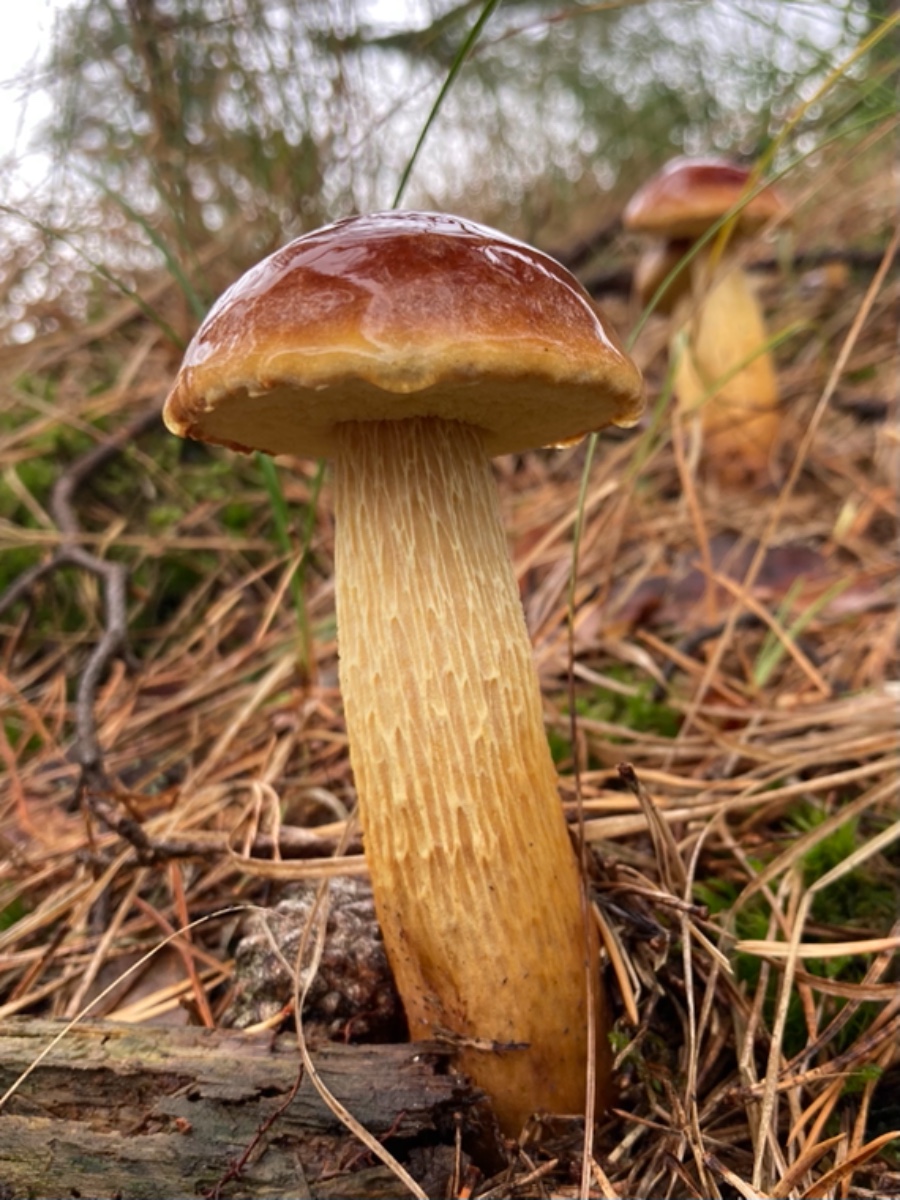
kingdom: Fungi
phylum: Basidiomycota
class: Agaricomycetes
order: Boletales
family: Boletaceae
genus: Aureoboletus
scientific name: Aureoboletus projectellus
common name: ribbestokket rørhat
